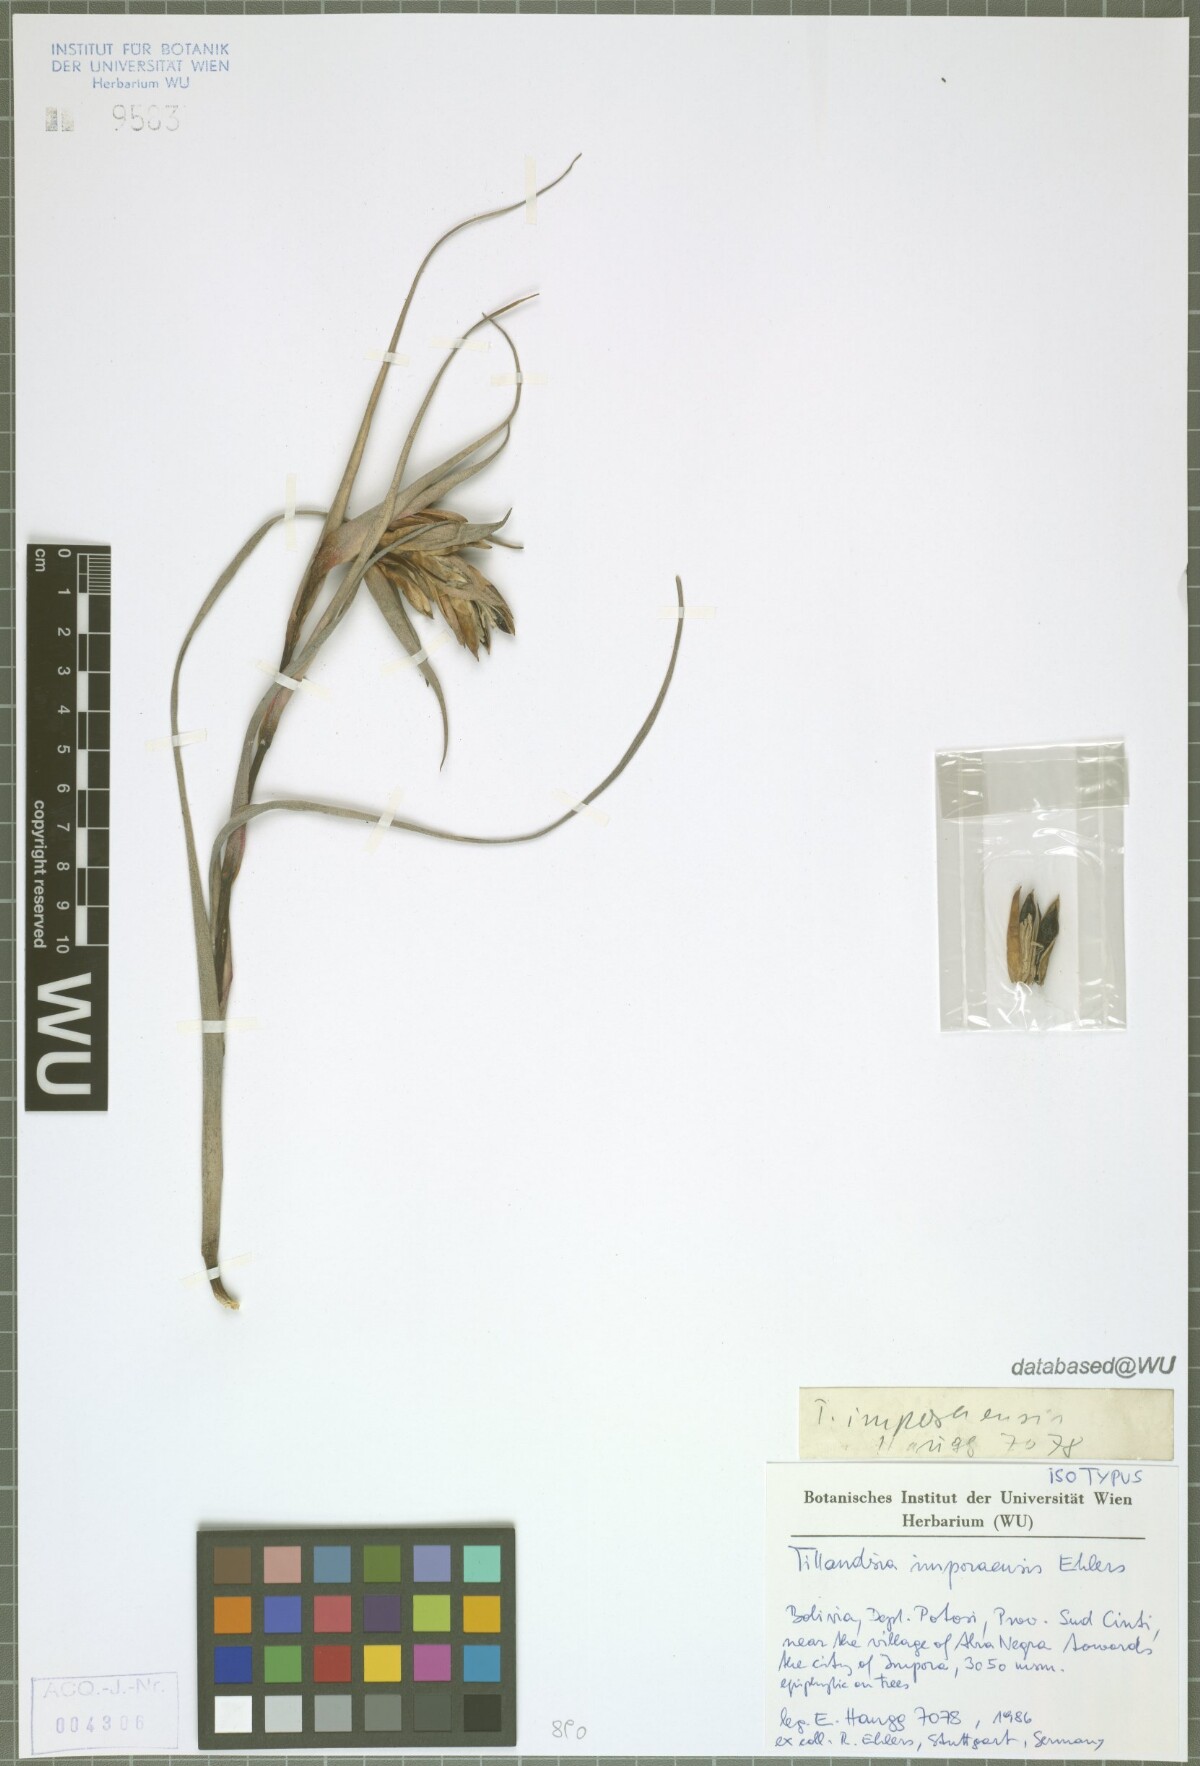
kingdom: Plantae
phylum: Tracheophyta
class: Liliopsida
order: Poales
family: Bromeliaceae
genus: Tillandsia
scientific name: Tillandsia imporaensis
